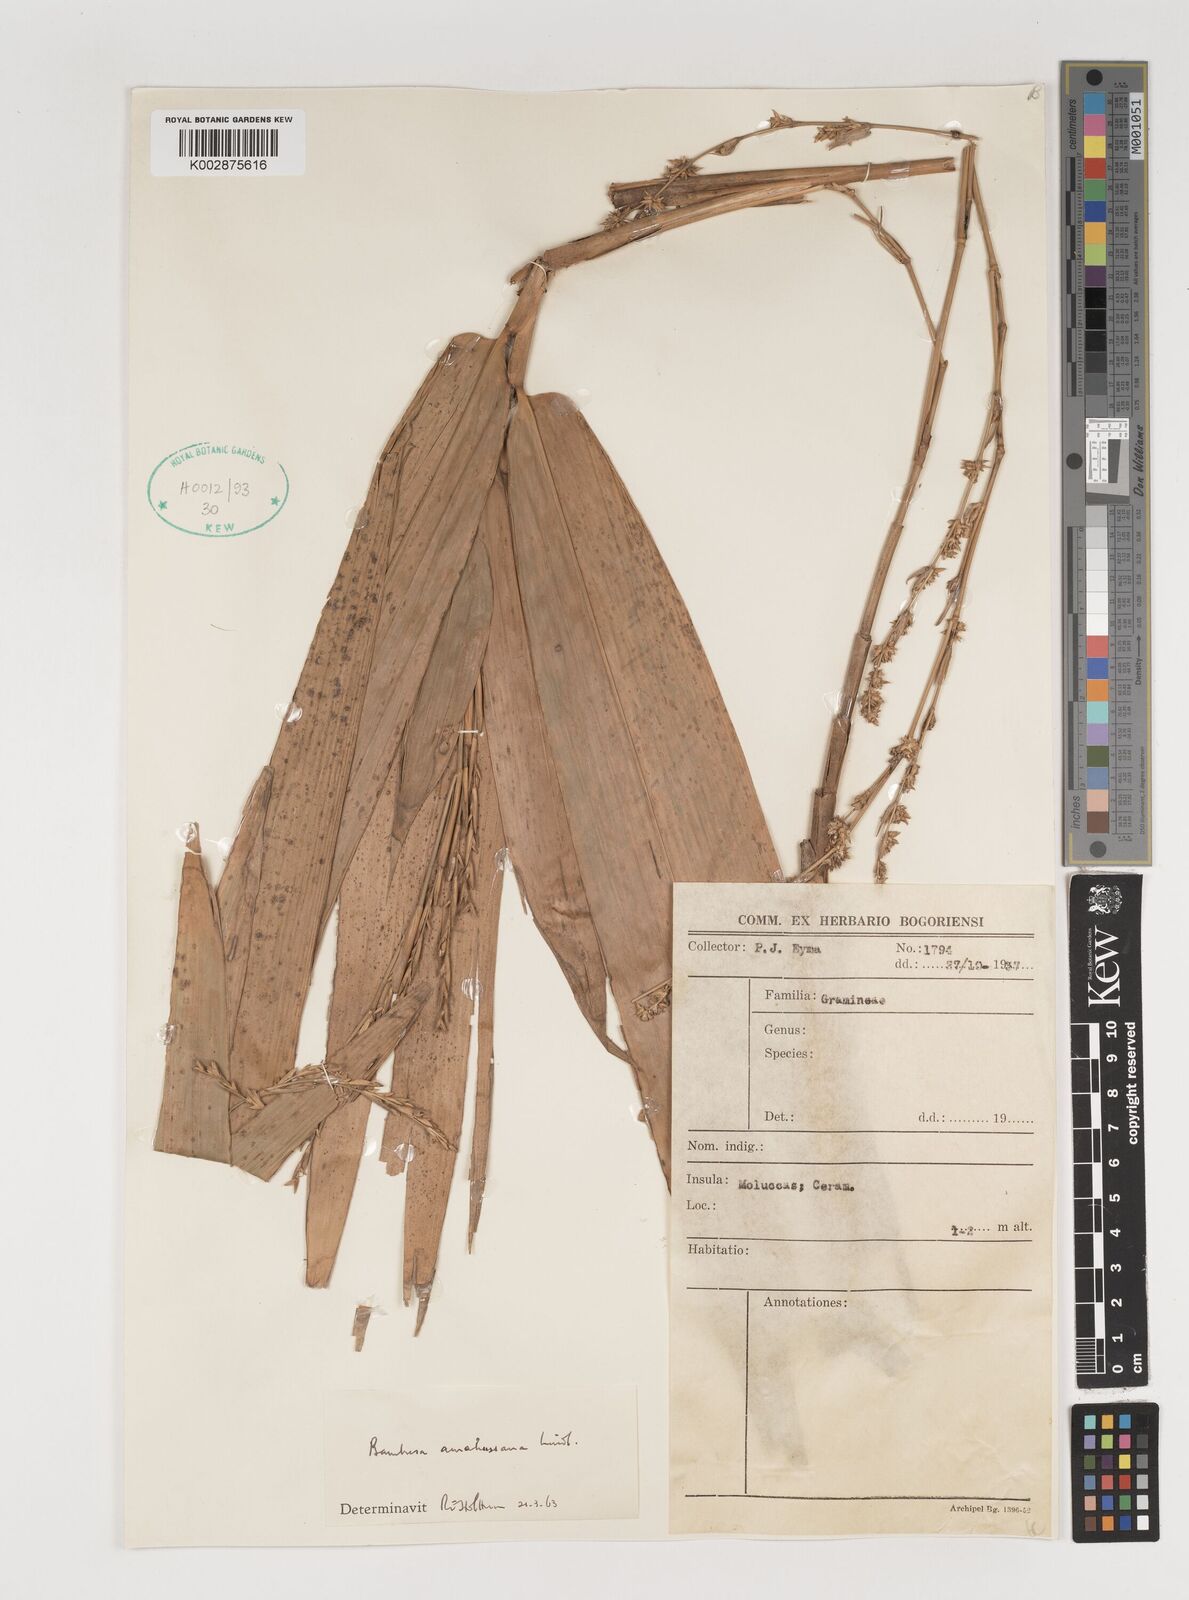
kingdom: Plantae
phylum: Tracheophyta
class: Liliopsida
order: Poales
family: Poaceae
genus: Neololeba
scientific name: Neololeba amahussana
